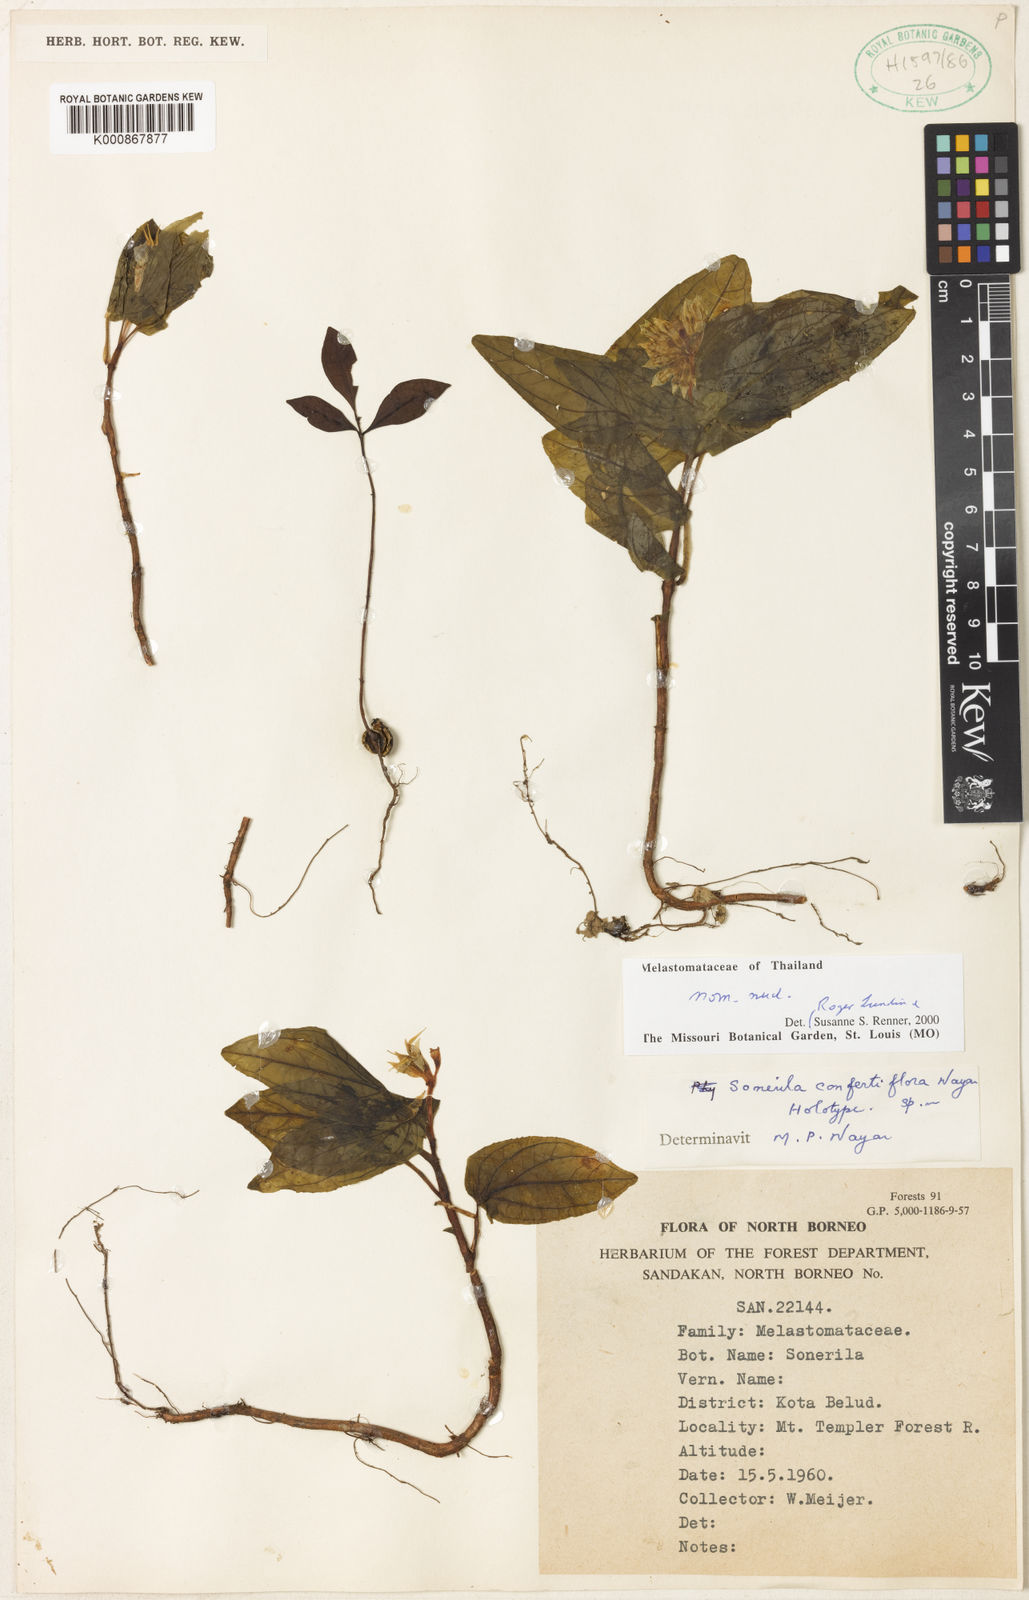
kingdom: Plantae
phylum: Tracheophyta
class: Magnoliopsida
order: Myrtales
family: Melastomataceae
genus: Sonerila
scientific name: Sonerila
